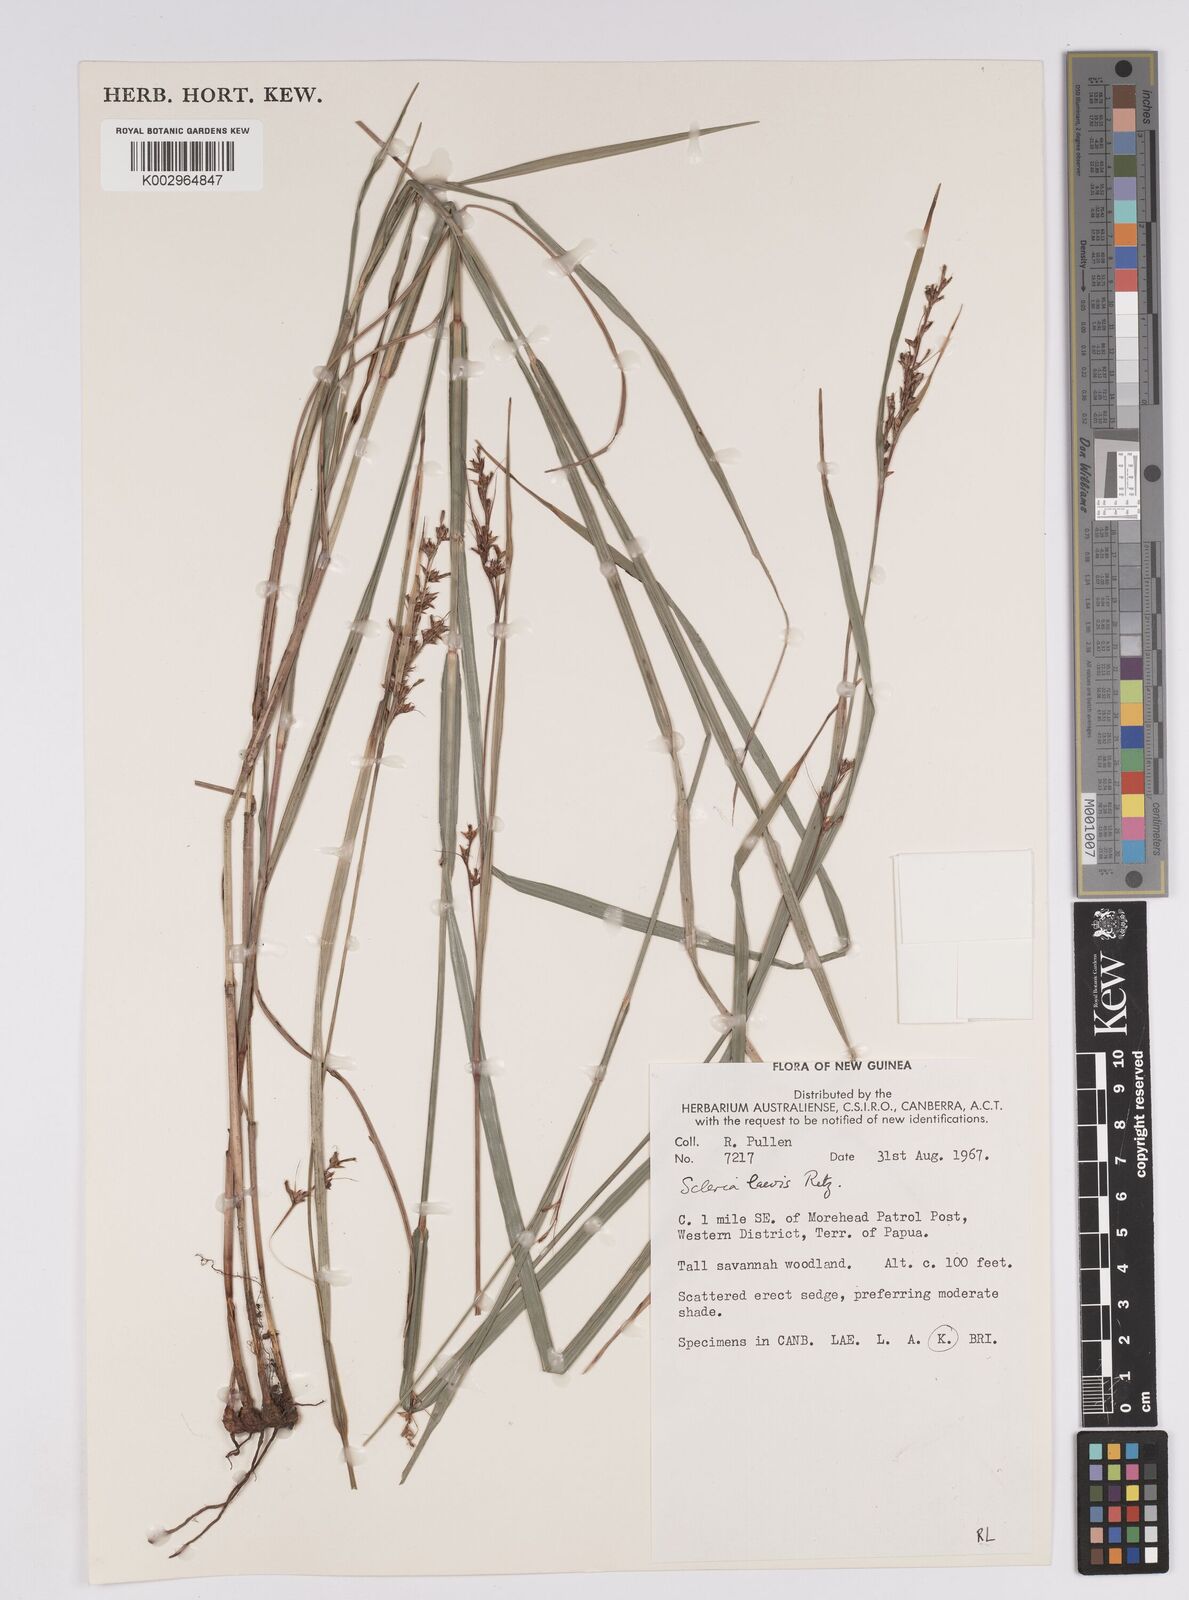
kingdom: Plantae
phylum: Tracheophyta
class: Liliopsida
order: Poales
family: Cyperaceae
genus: Scleria
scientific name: Scleria
